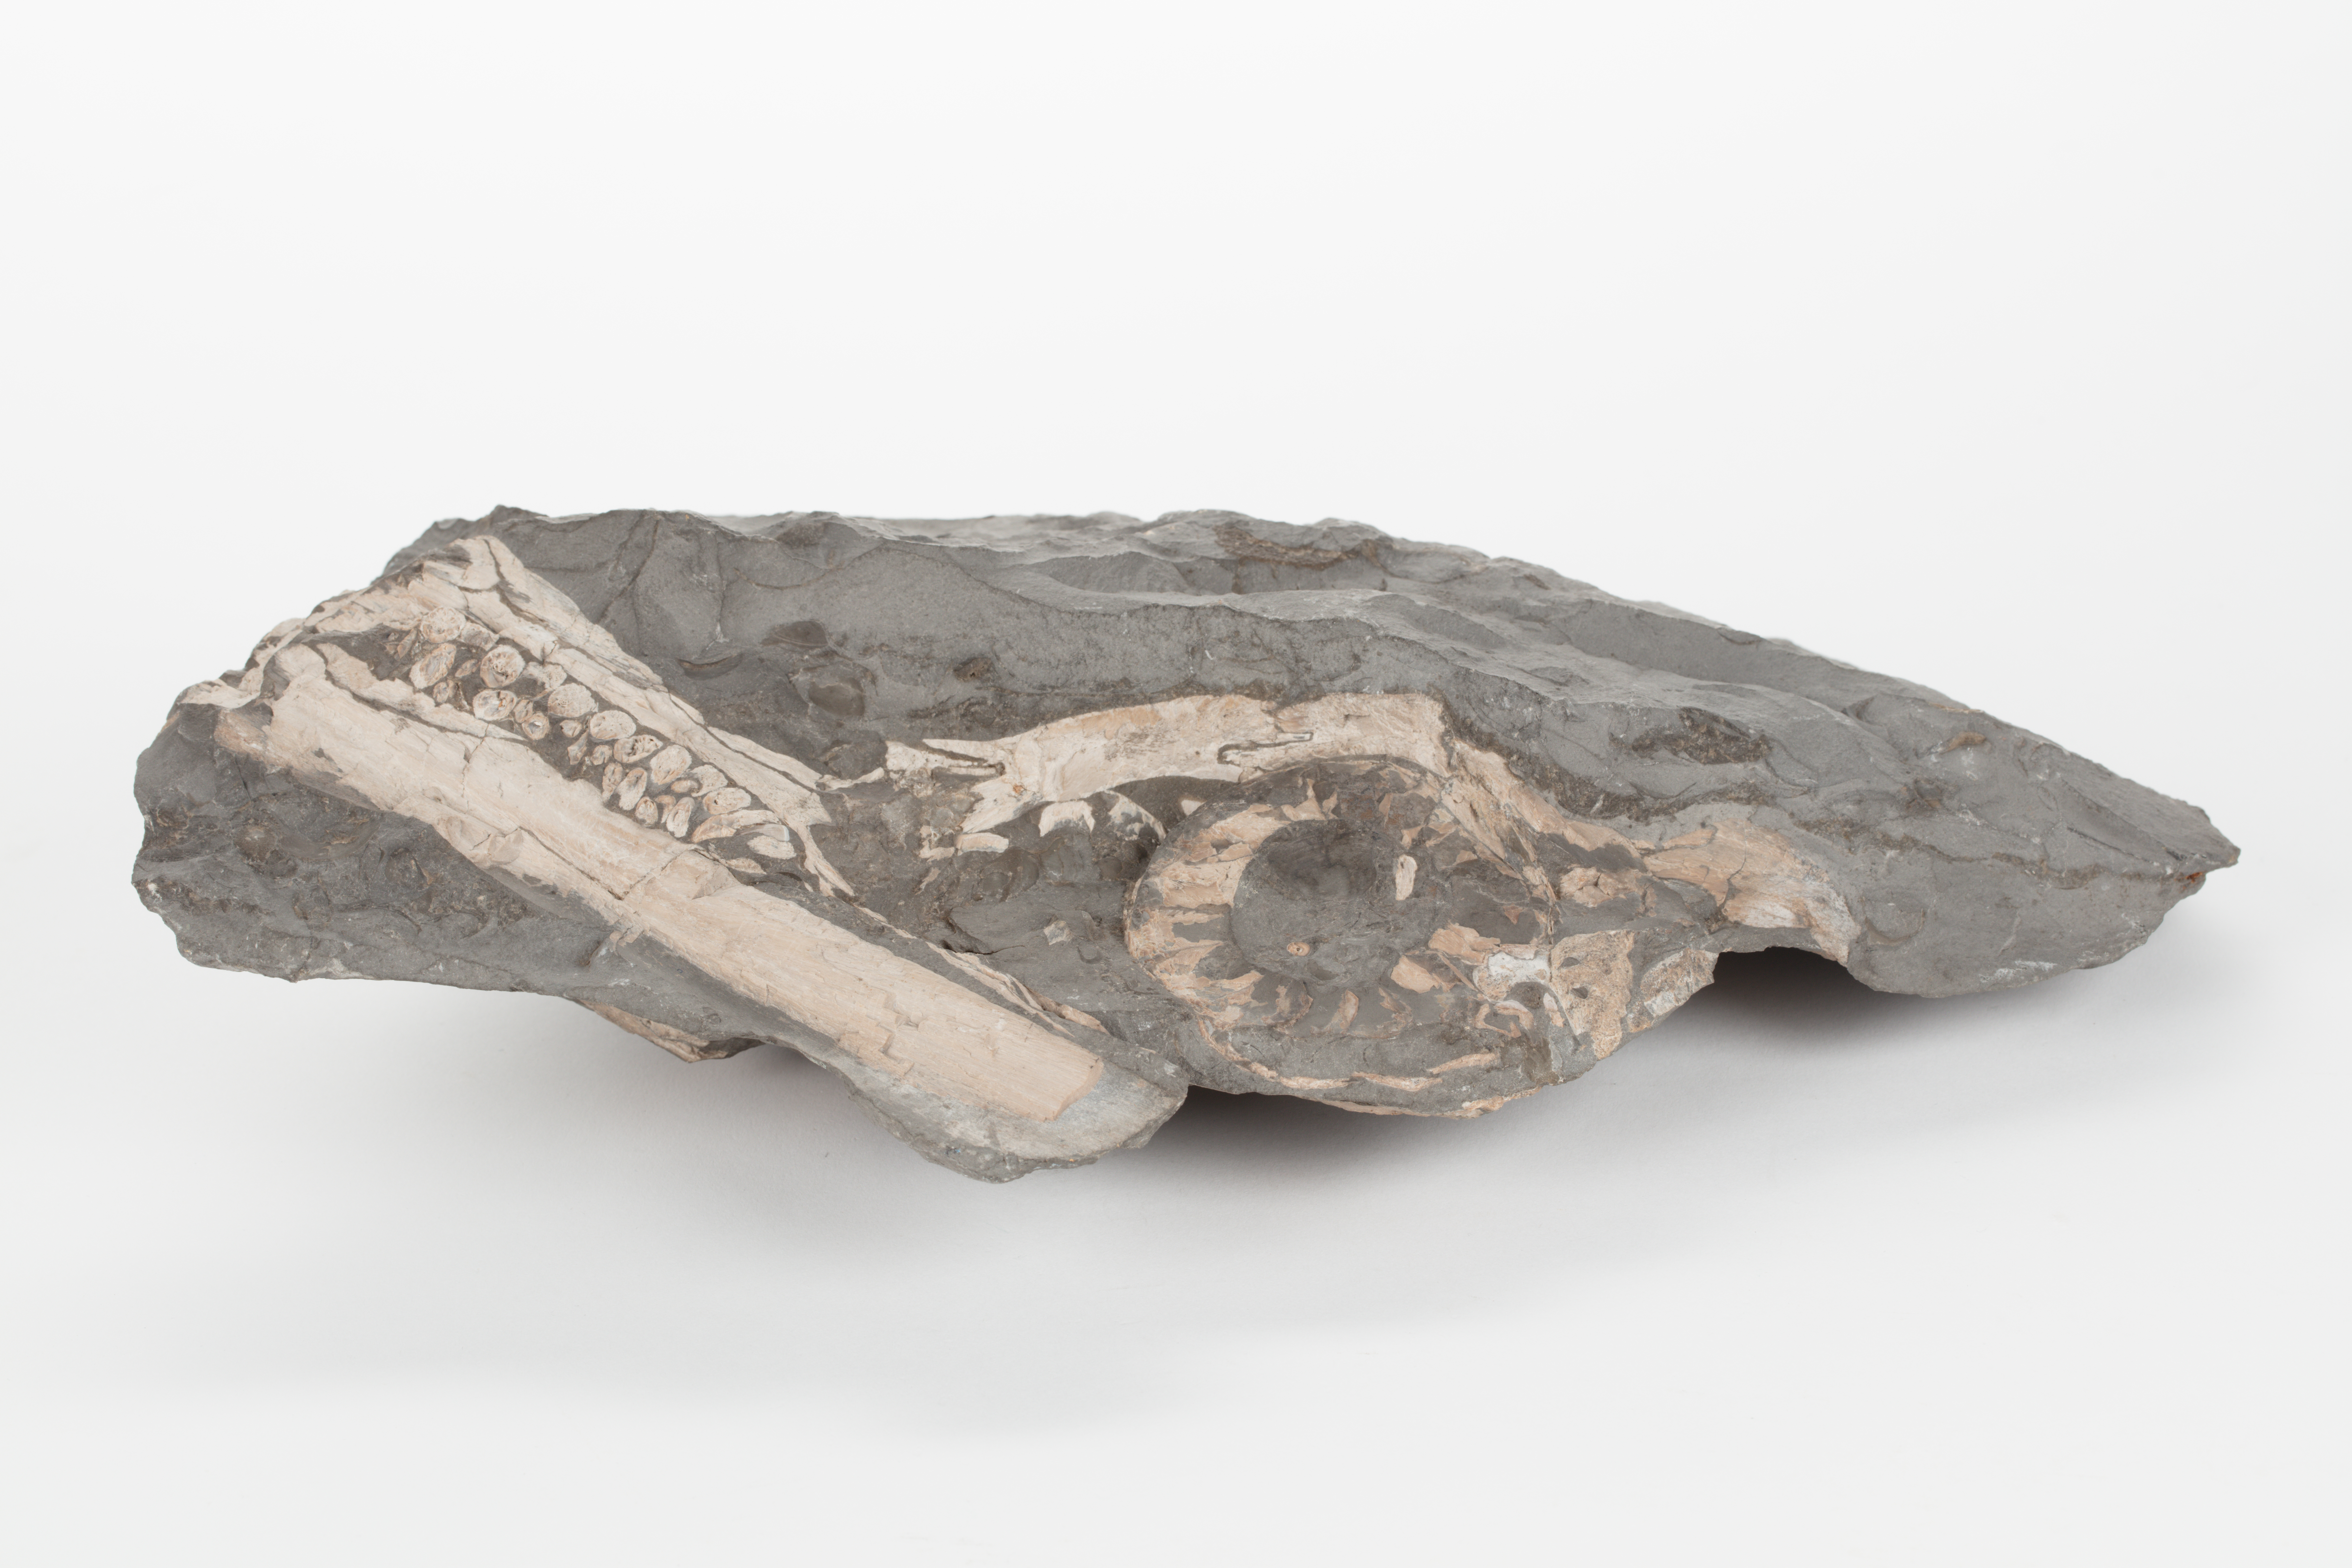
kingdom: Animalia
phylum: Chordata
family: Ichthyosauridae
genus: Ichthyosaurus
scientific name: Ichthyosaurus
